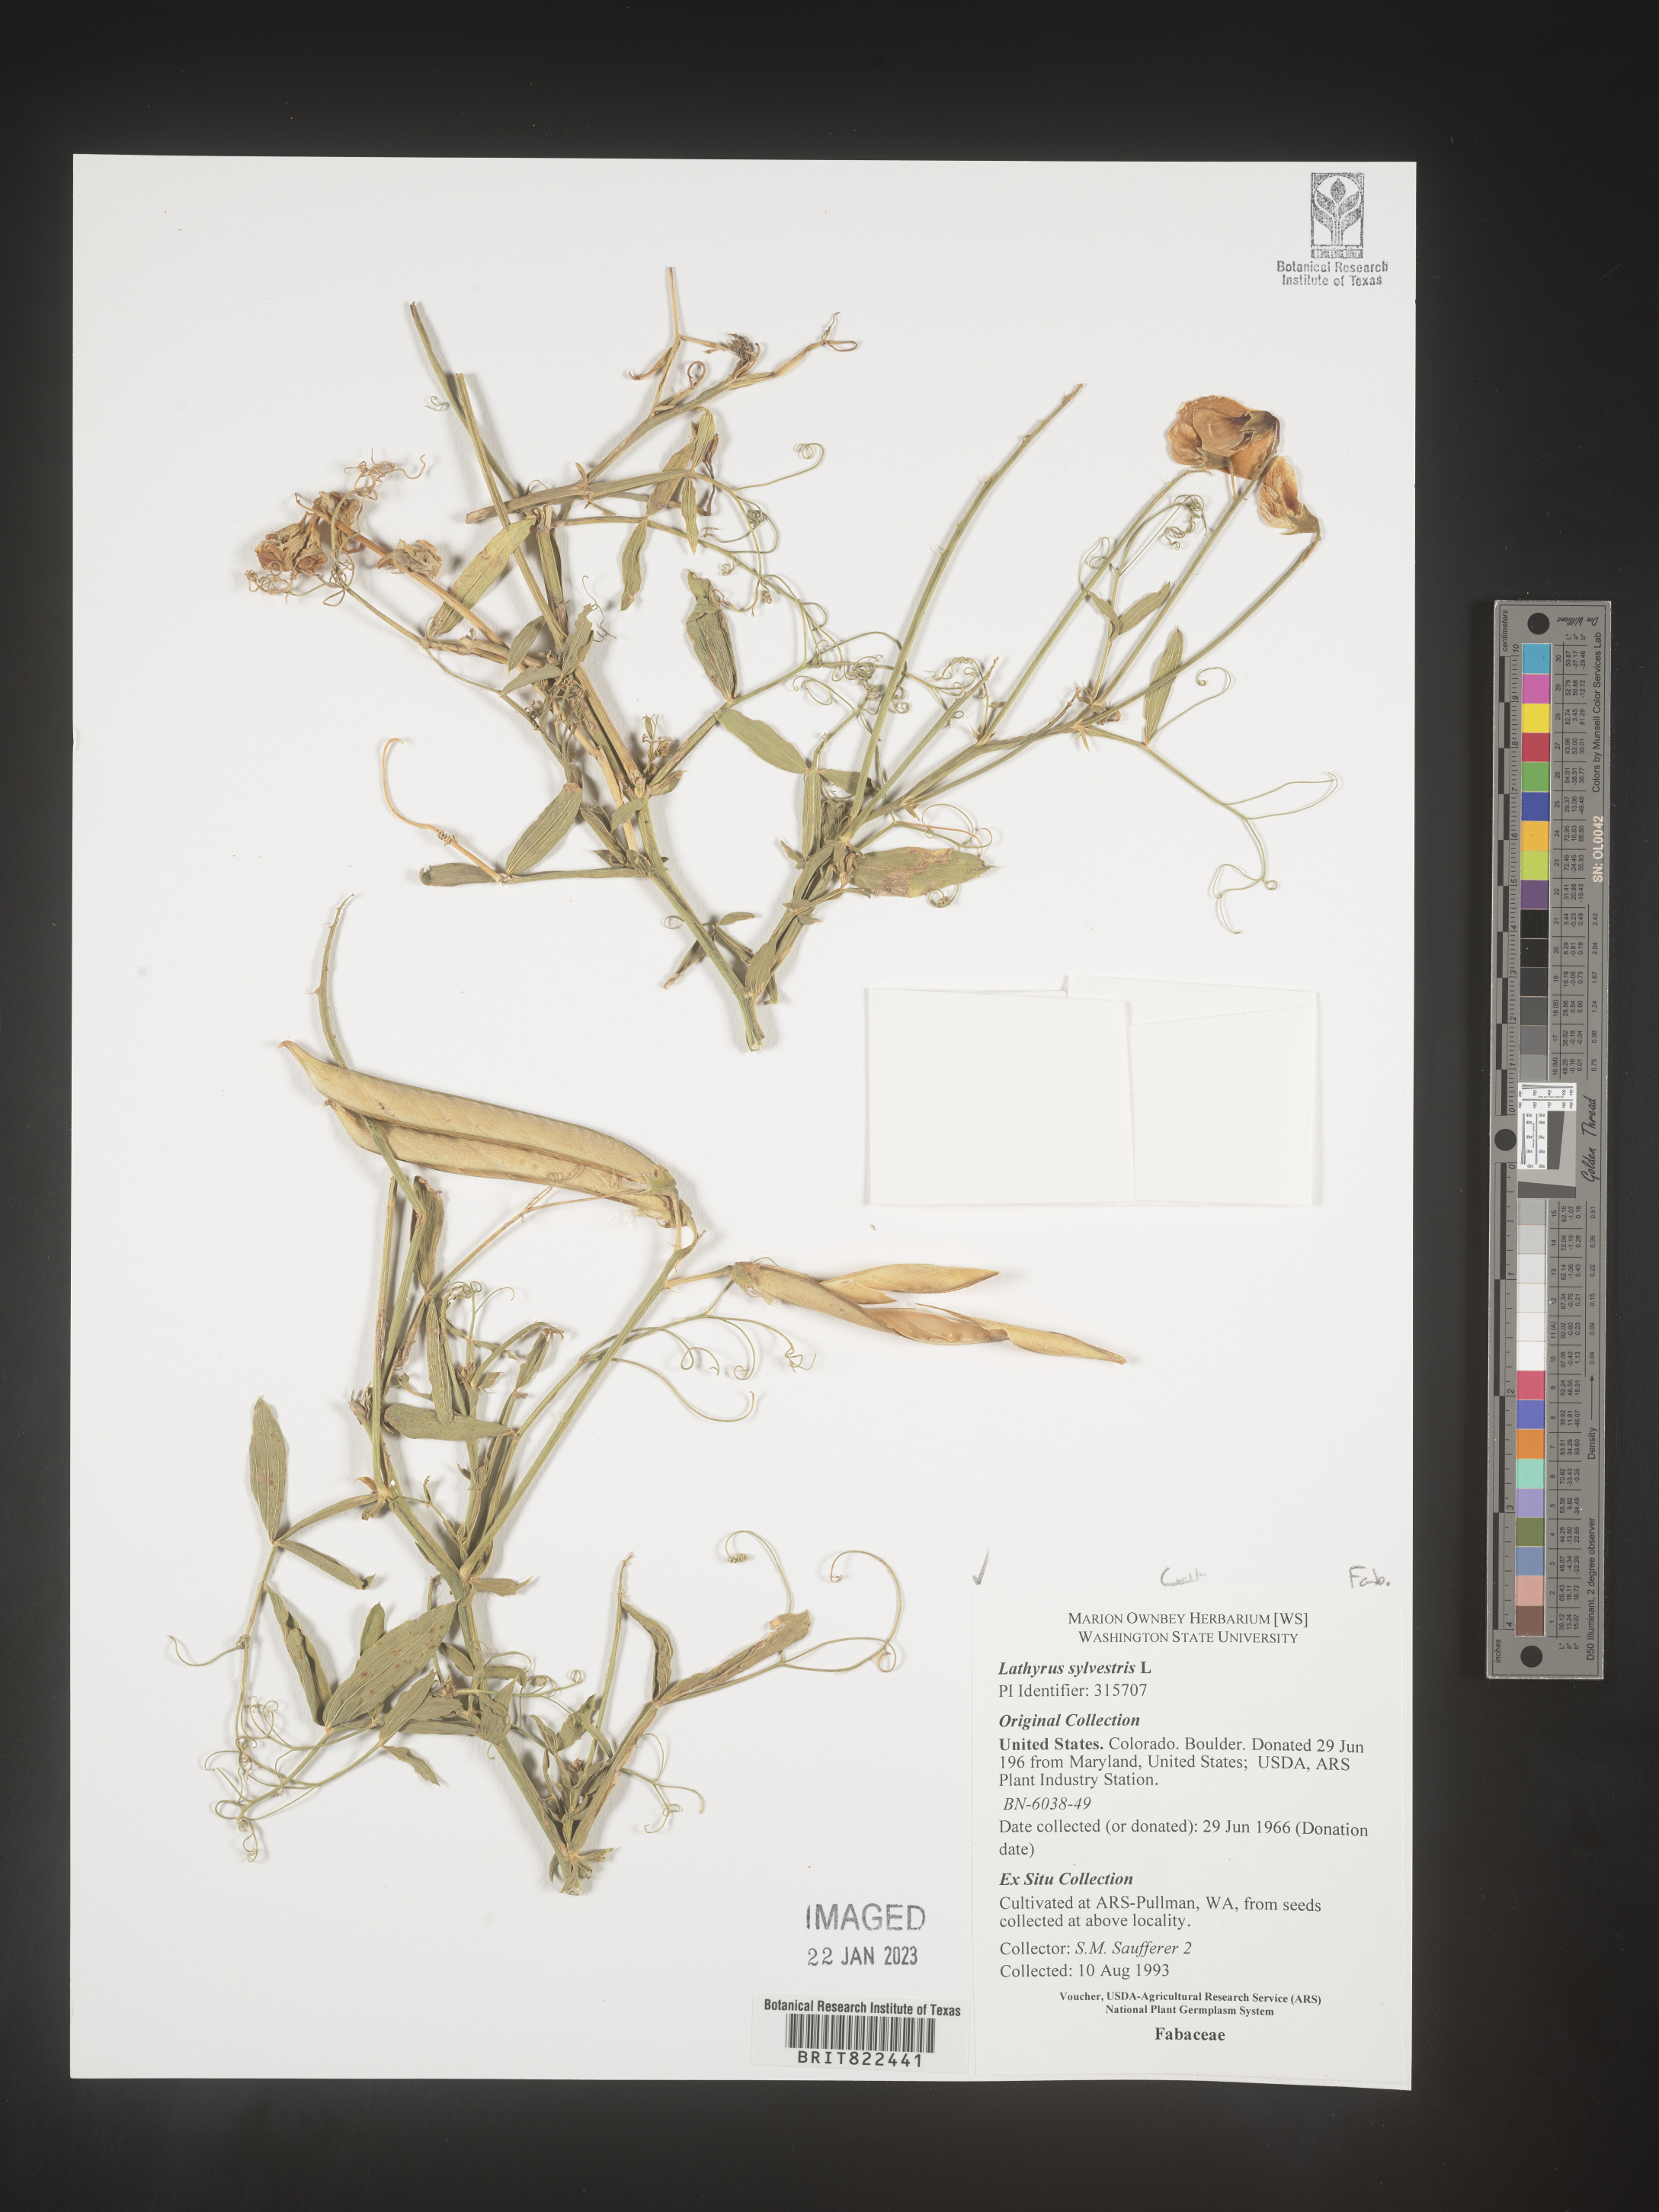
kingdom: Plantae
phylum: Tracheophyta
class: Magnoliopsida
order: Fabales
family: Fabaceae
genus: Lathyrus
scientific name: Lathyrus
